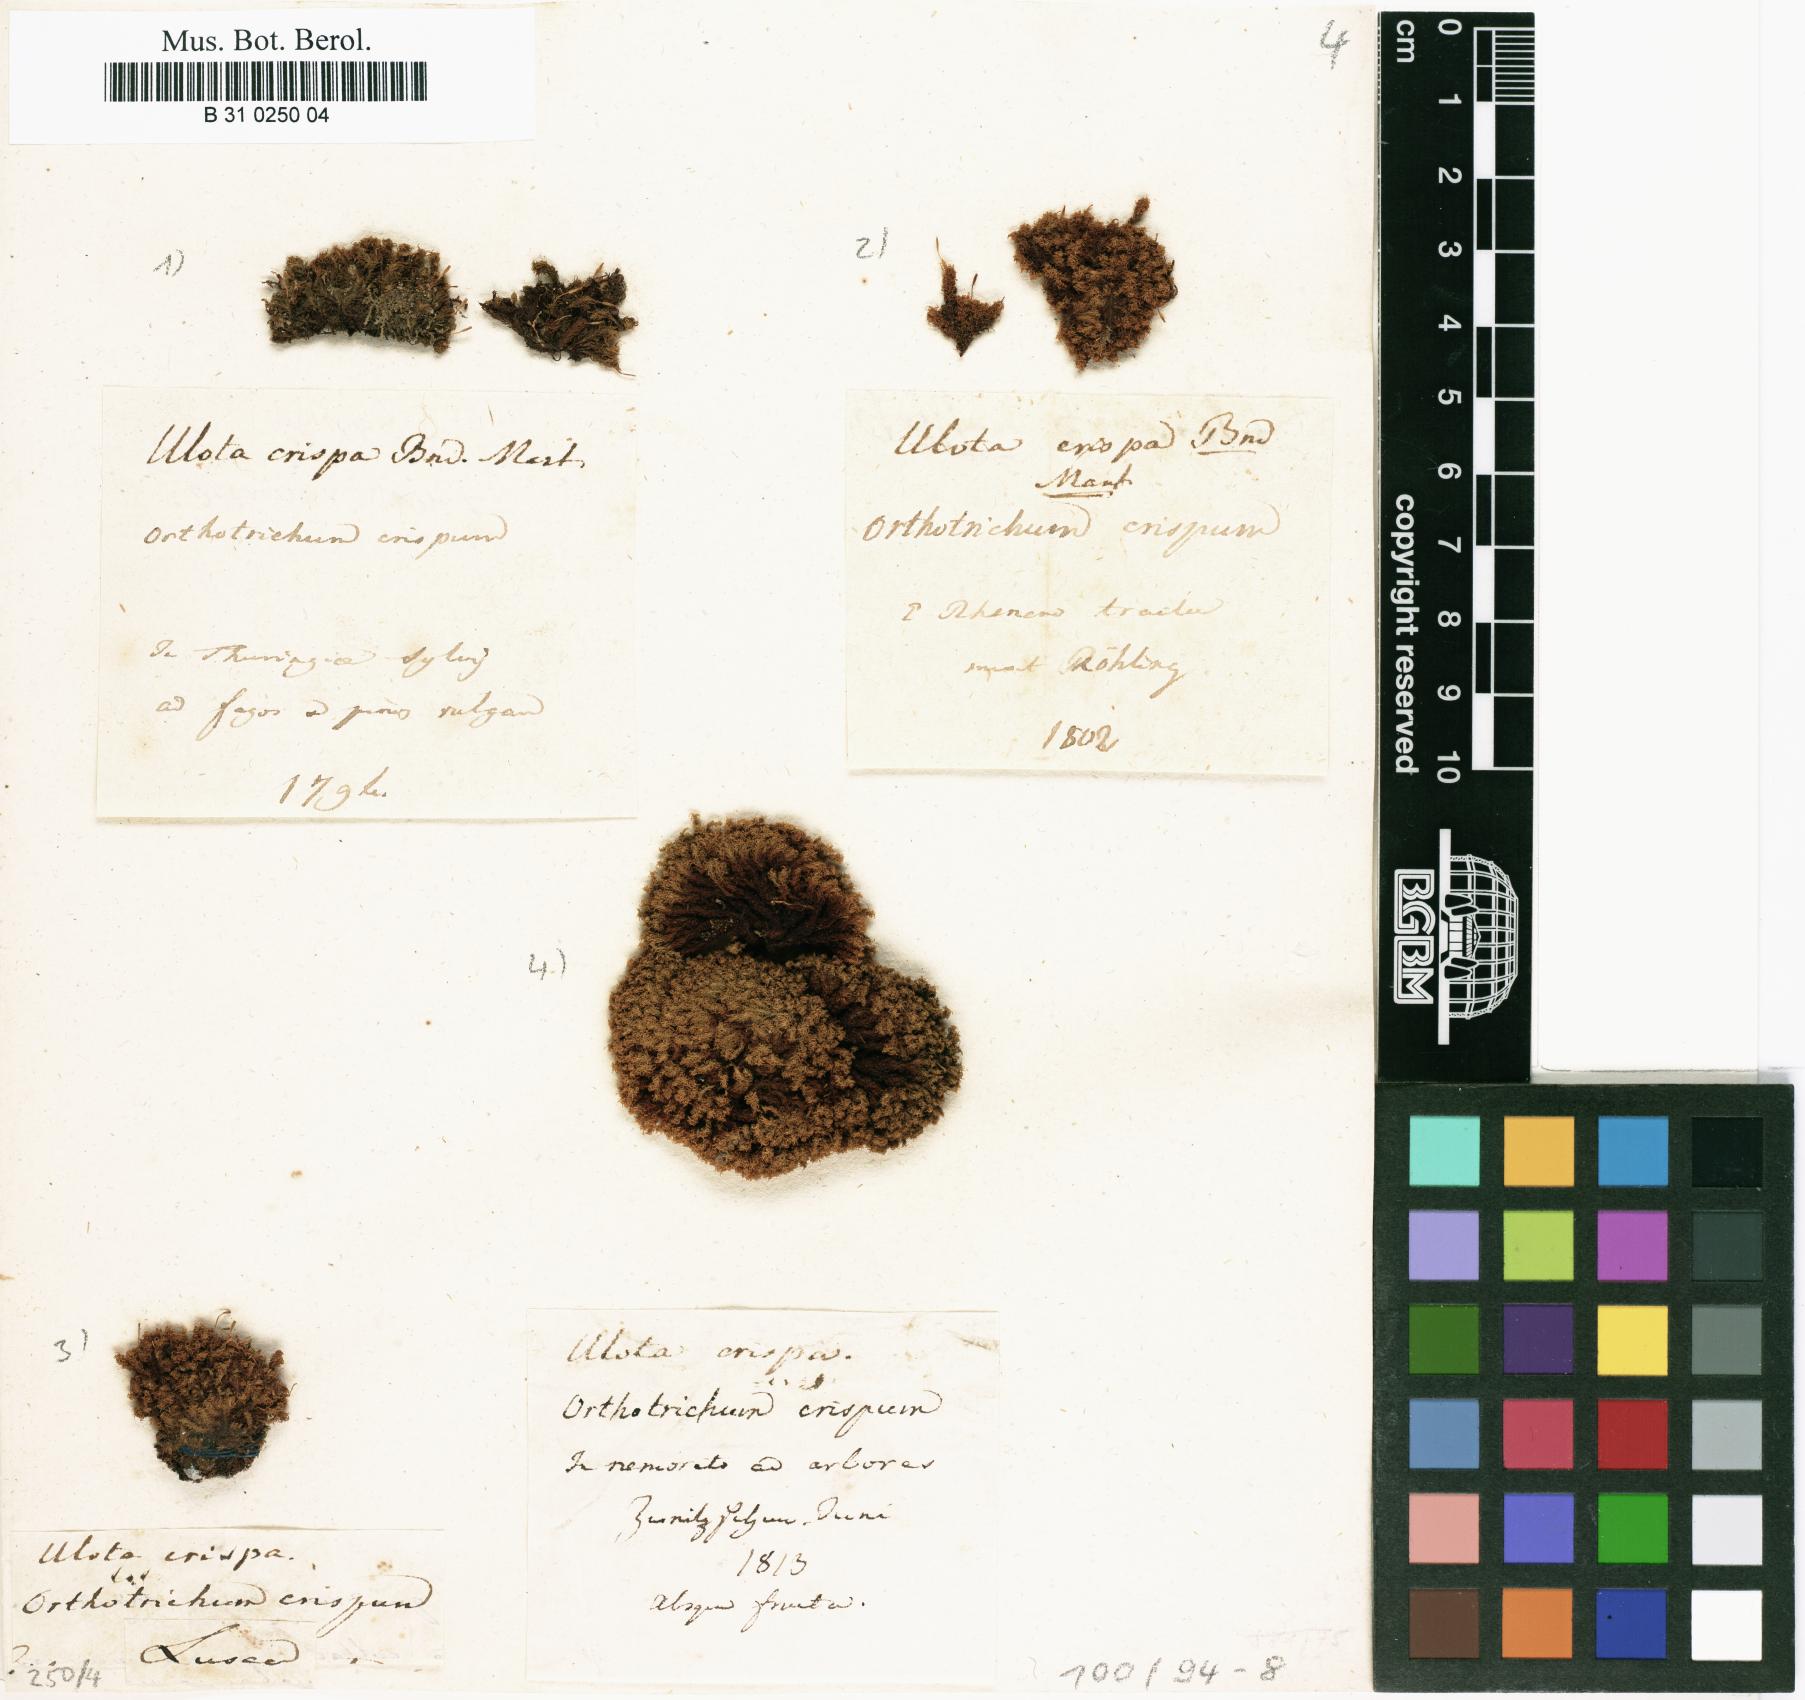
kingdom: Plantae
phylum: Bryophyta
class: Bryopsida
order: Orthotrichales
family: Orthotrichaceae
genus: Ulota
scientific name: Ulota crispa
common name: Crisped pincushion moss
